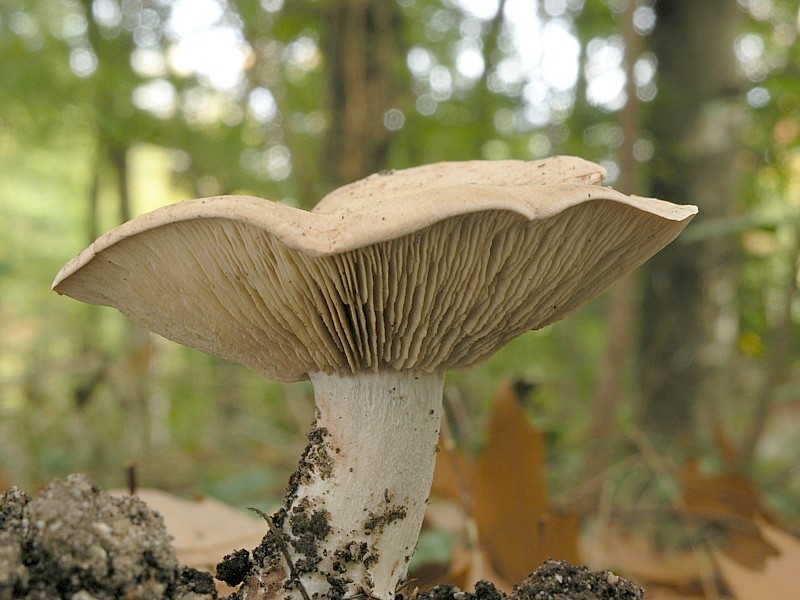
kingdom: Fungi
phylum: Basidiomycota
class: Agaricomycetes
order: Agaricales
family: Entolomataceae
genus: Clitopilus
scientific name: Clitopilus geminus
